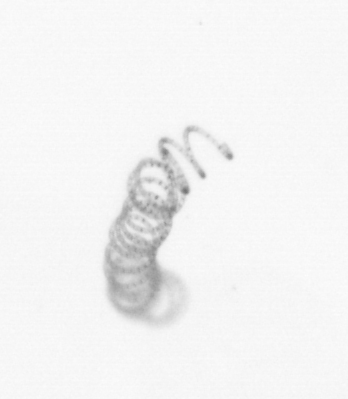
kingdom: Chromista
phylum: Ochrophyta
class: Bacillariophyceae
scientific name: Bacillariophyceae
